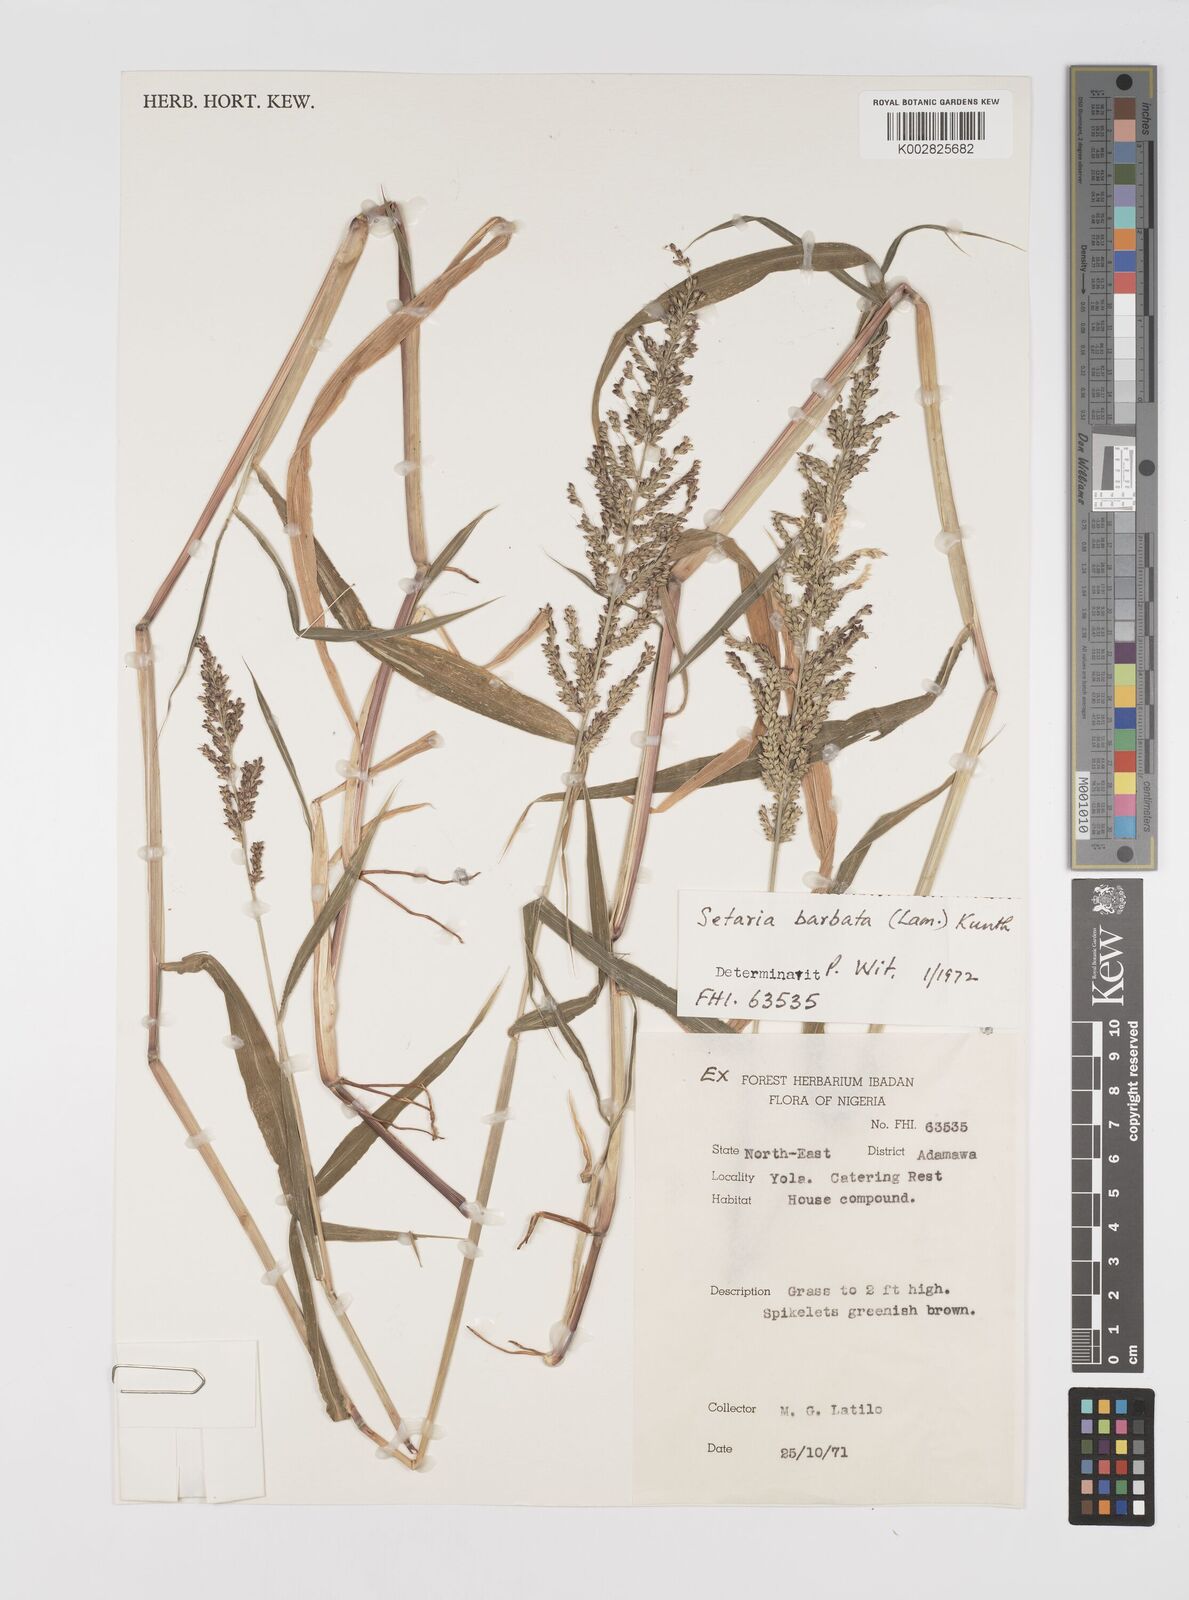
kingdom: Plantae
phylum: Tracheophyta
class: Liliopsida
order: Poales
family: Poaceae
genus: Setaria
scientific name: Setaria barbata
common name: East indian bristlegrass
